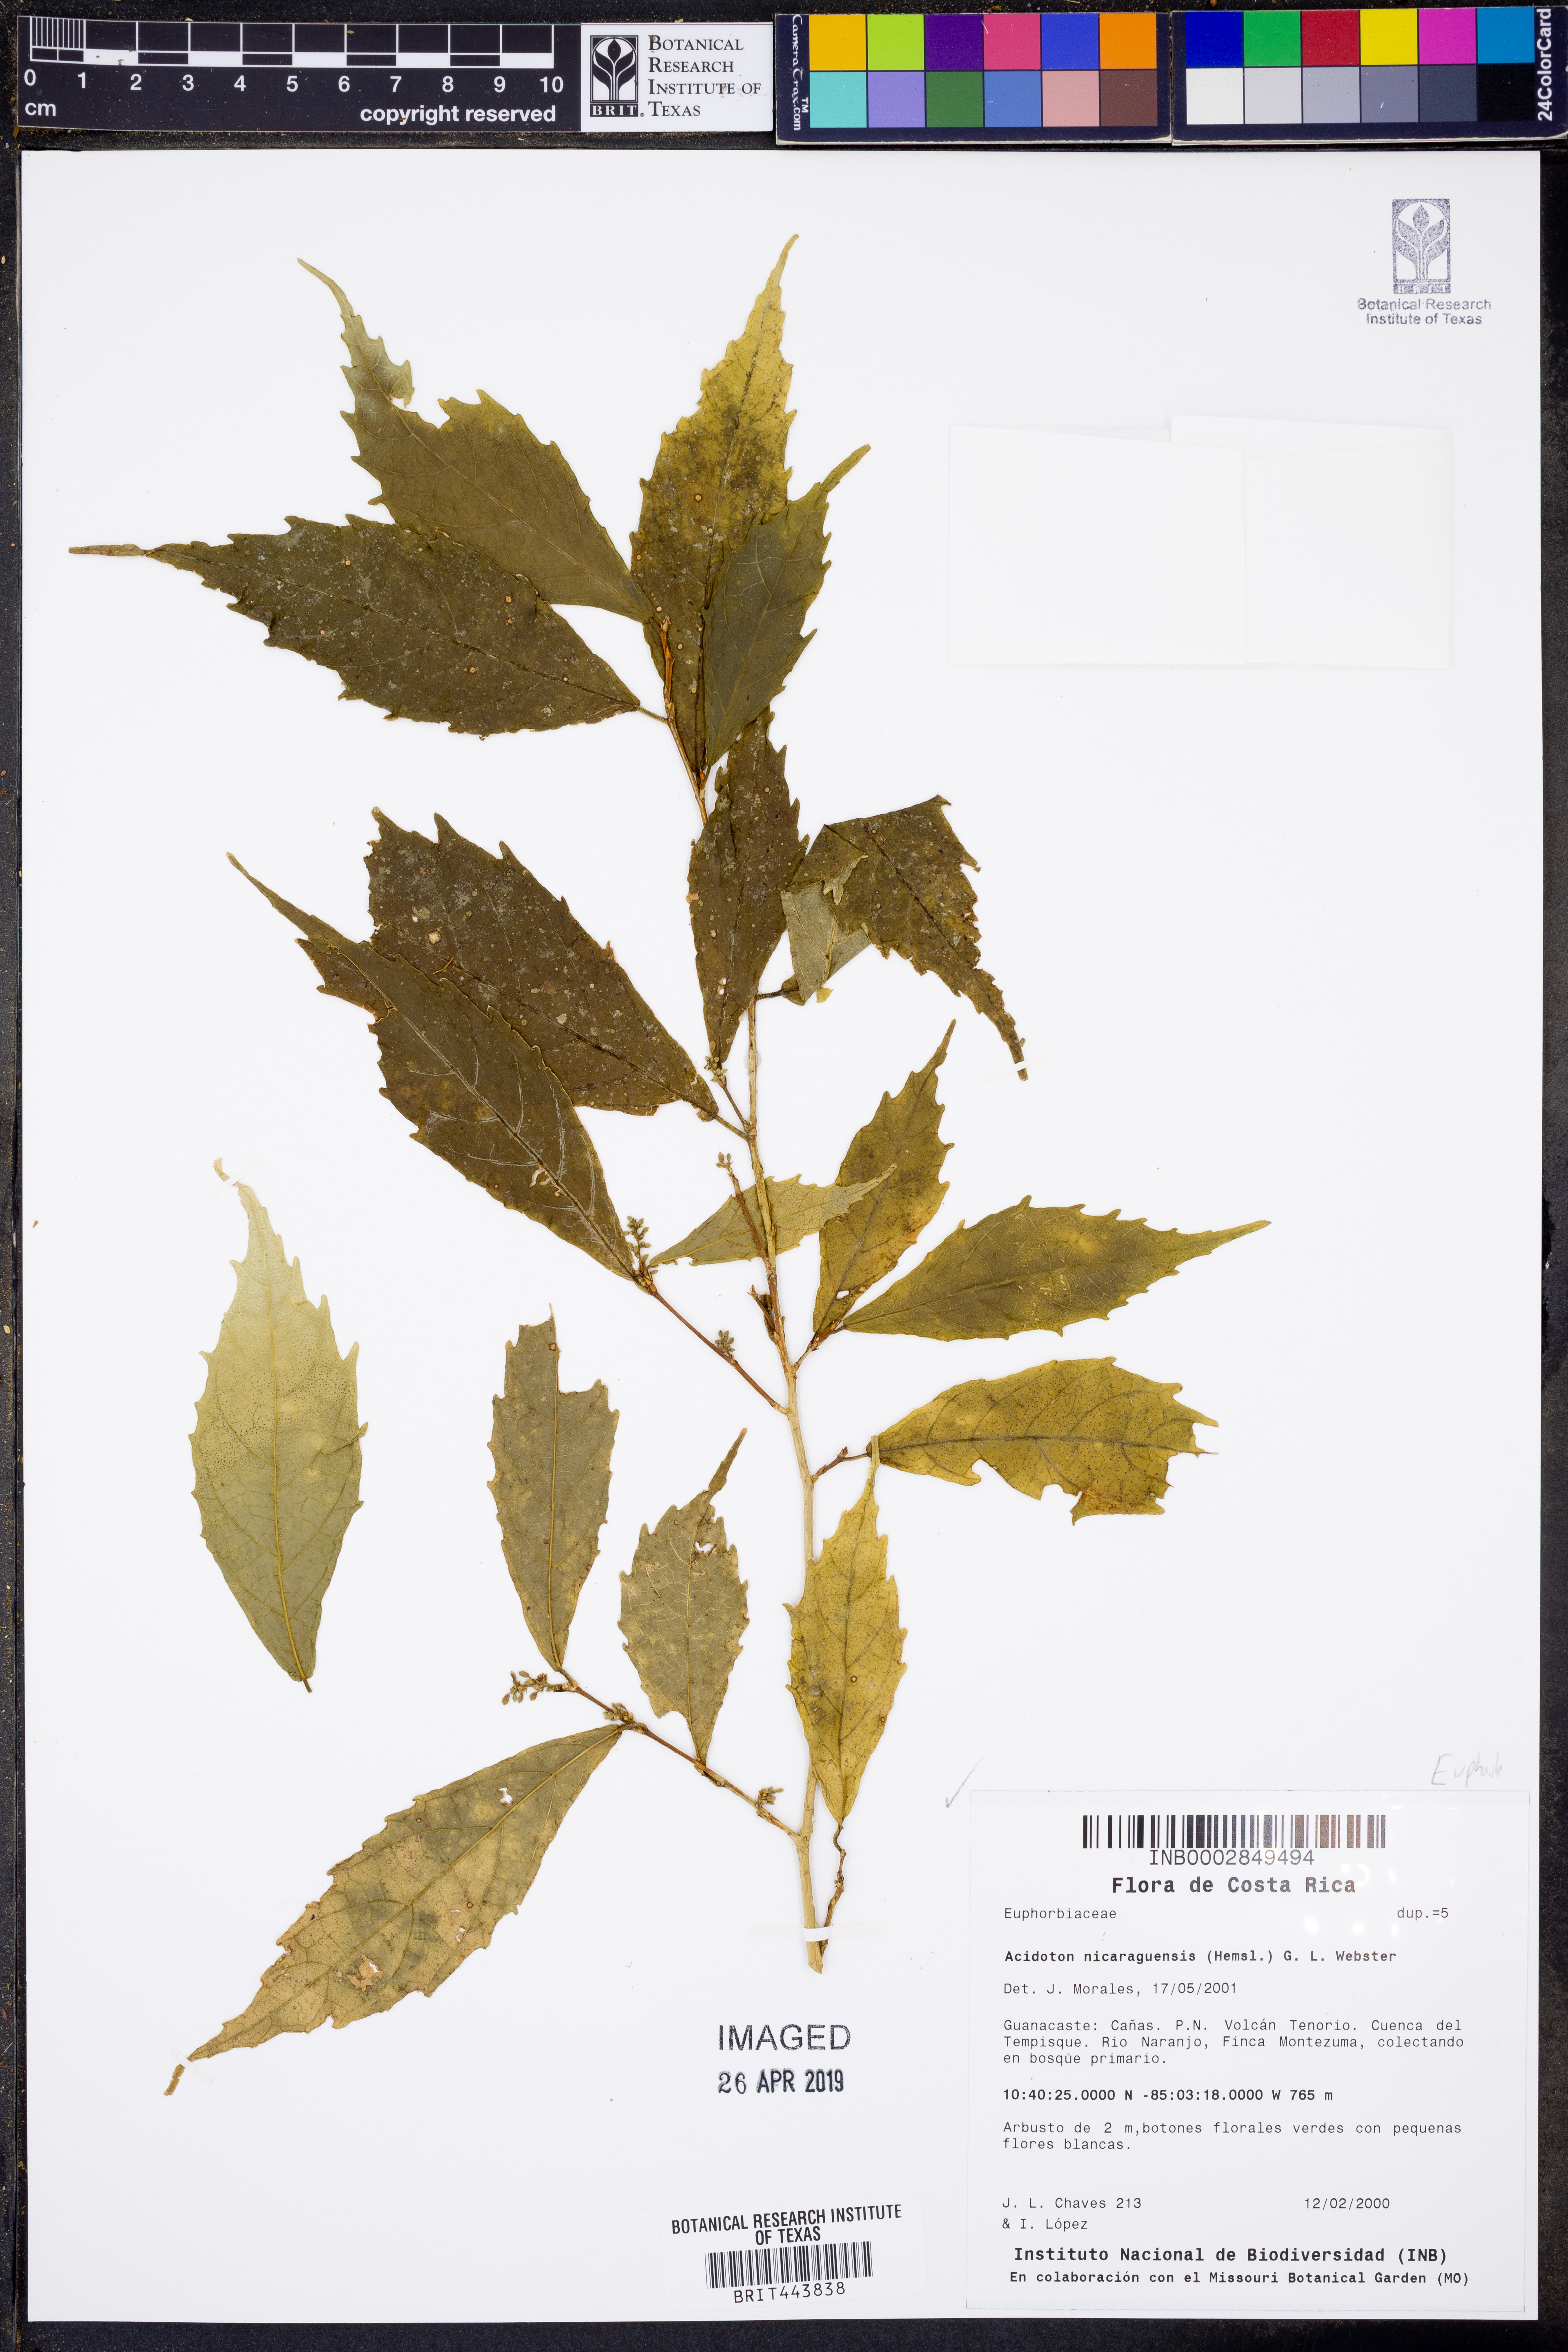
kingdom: Plantae
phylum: Tracheophyta
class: Magnoliopsida
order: Malpighiales
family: Euphorbiaceae
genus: Gitara
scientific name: Gitara nicaraguensis
